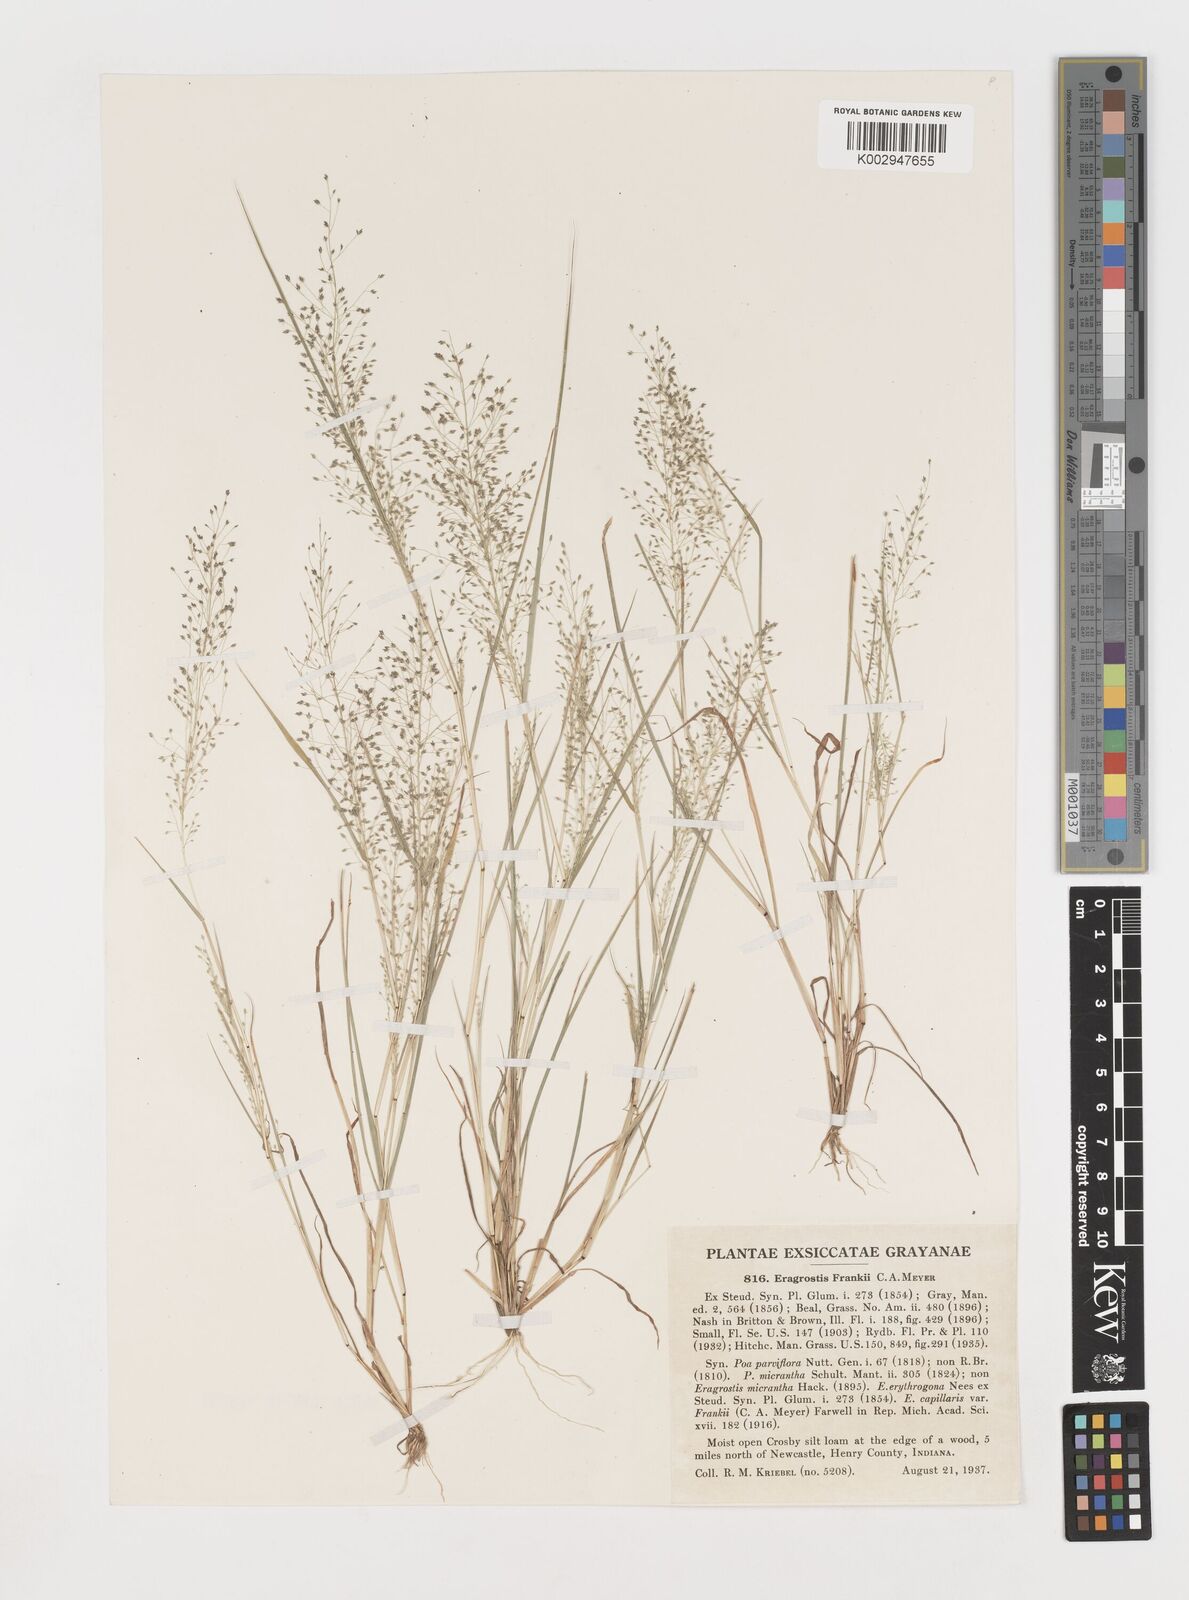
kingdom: Plantae
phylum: Tracheophyta
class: Liliopsida
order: Poales
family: Poaceae
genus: Eragrostis
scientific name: Eragrostis frankii
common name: Frank's lovegrass
